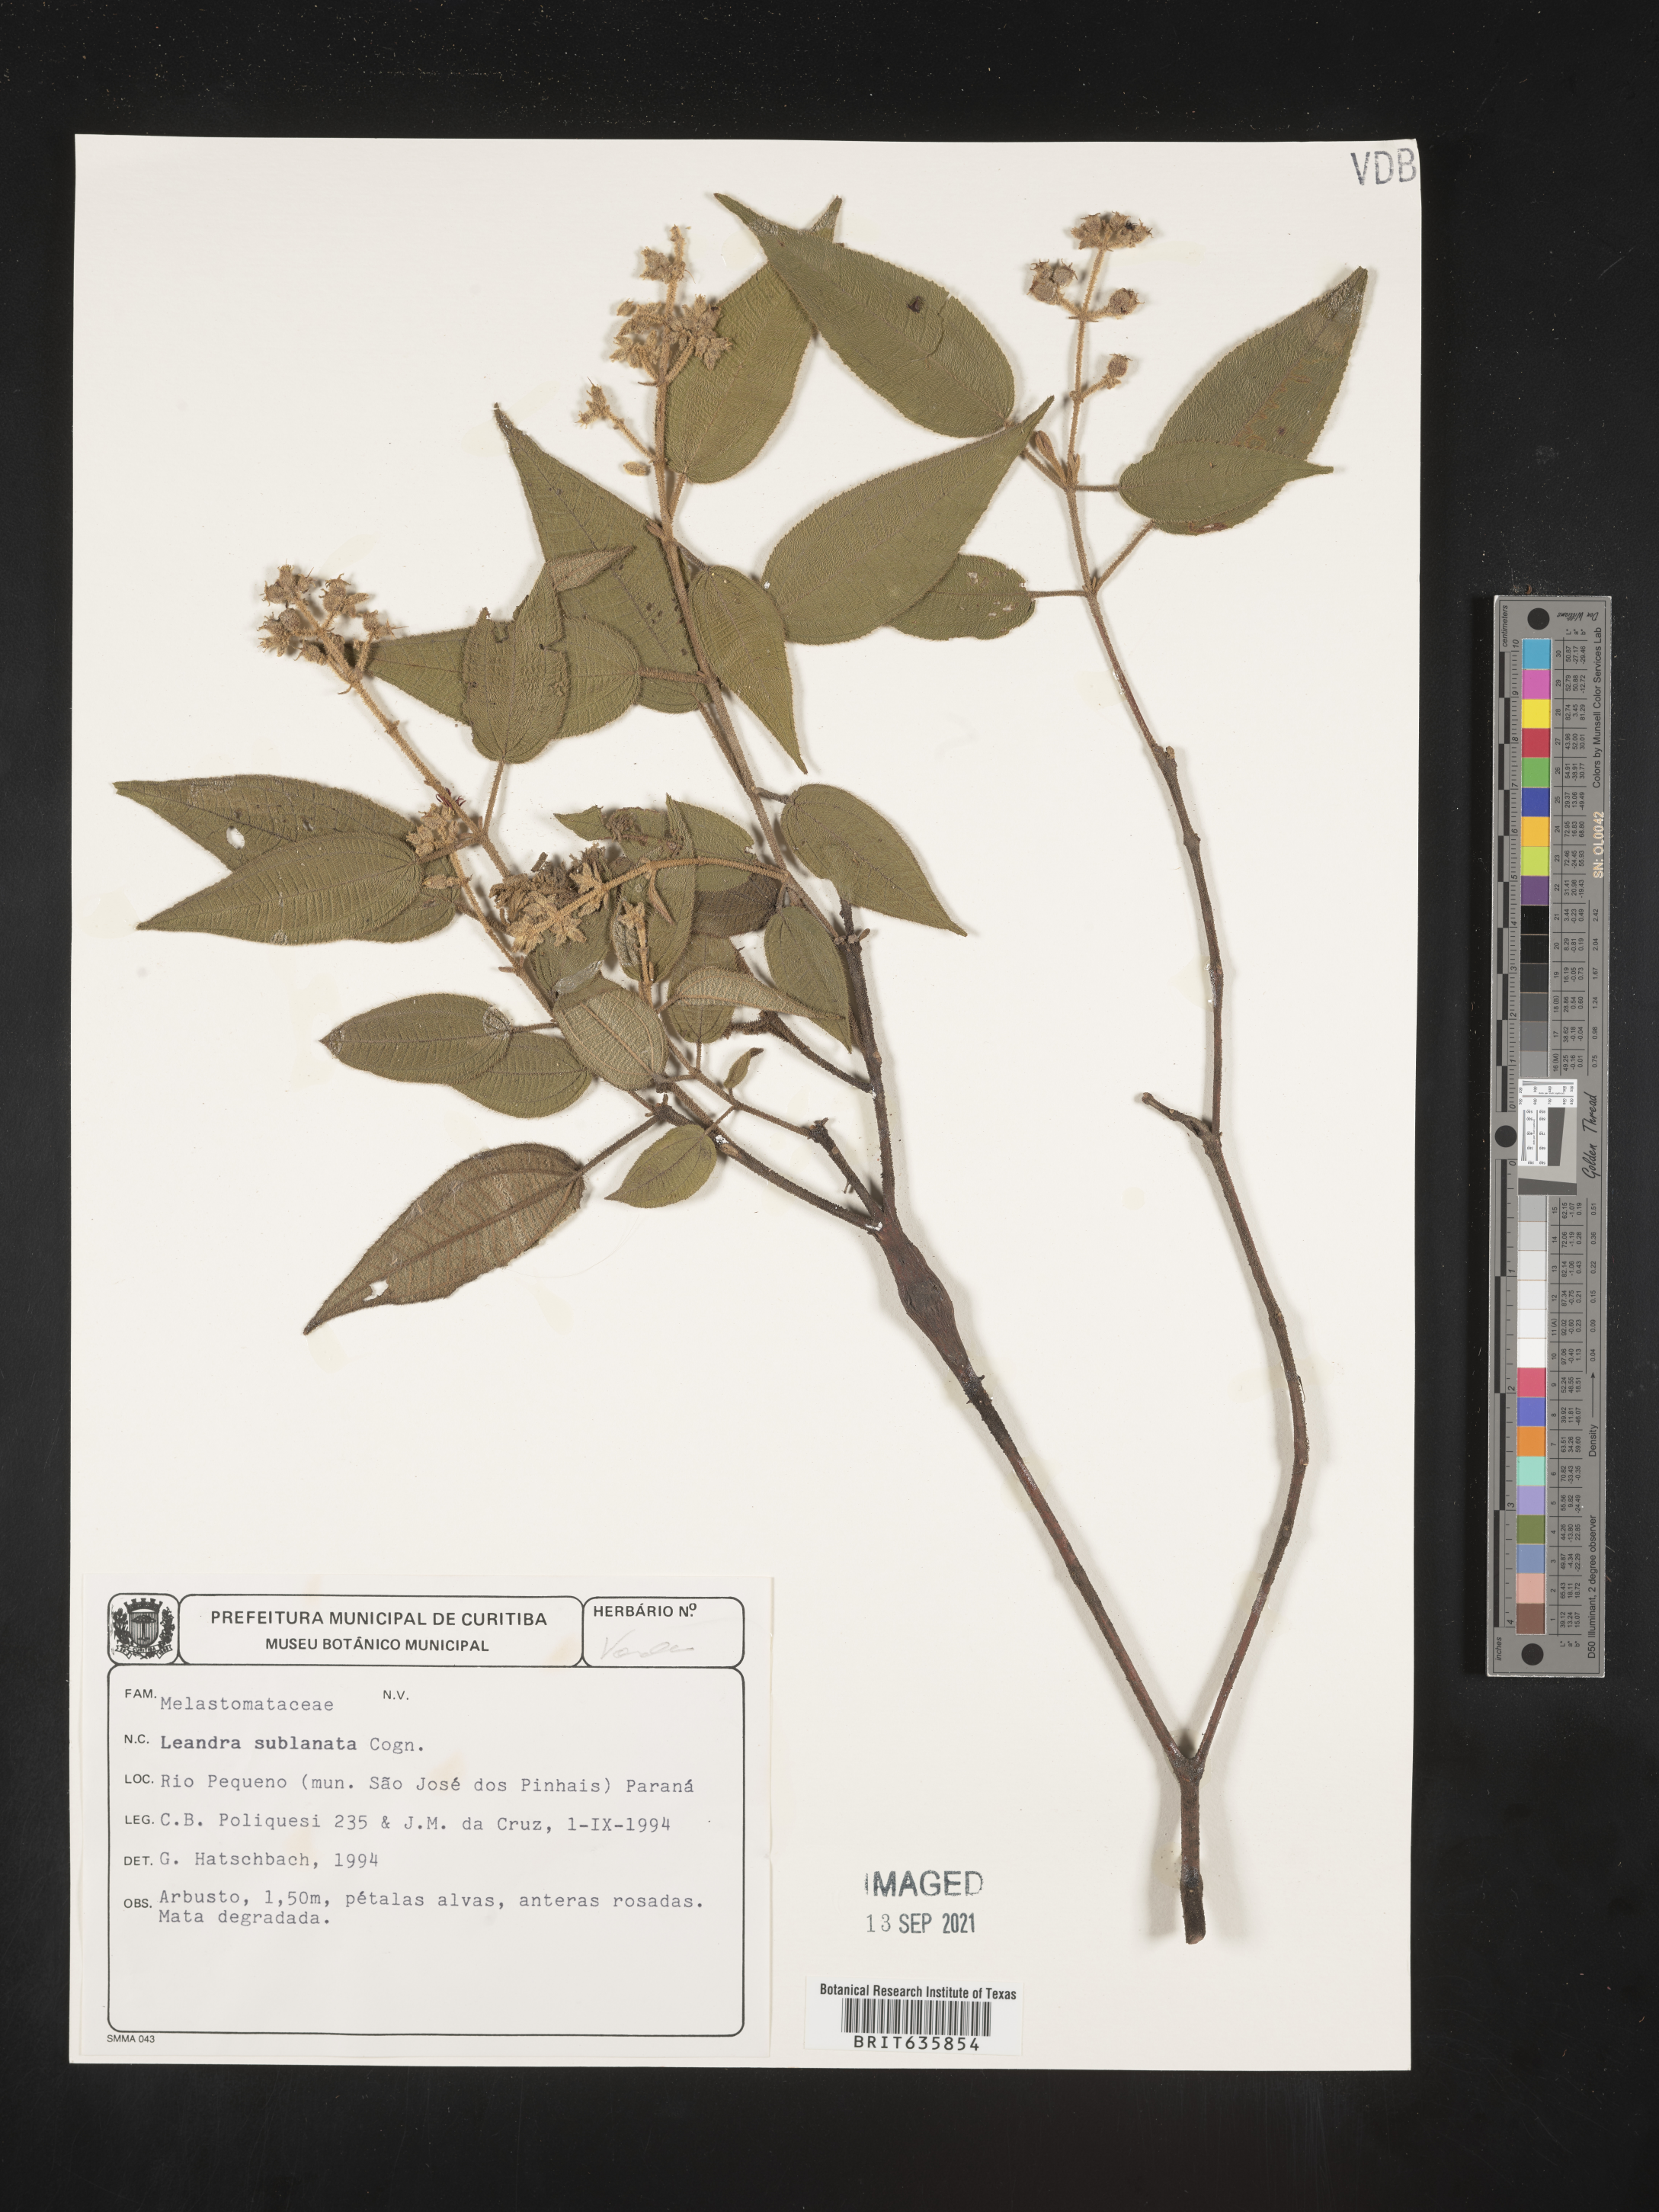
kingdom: Plantae
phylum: Tracheophyta
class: Magnoliopsida
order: Myrtales
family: Melastomataceae
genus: Miconia
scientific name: Miconia
